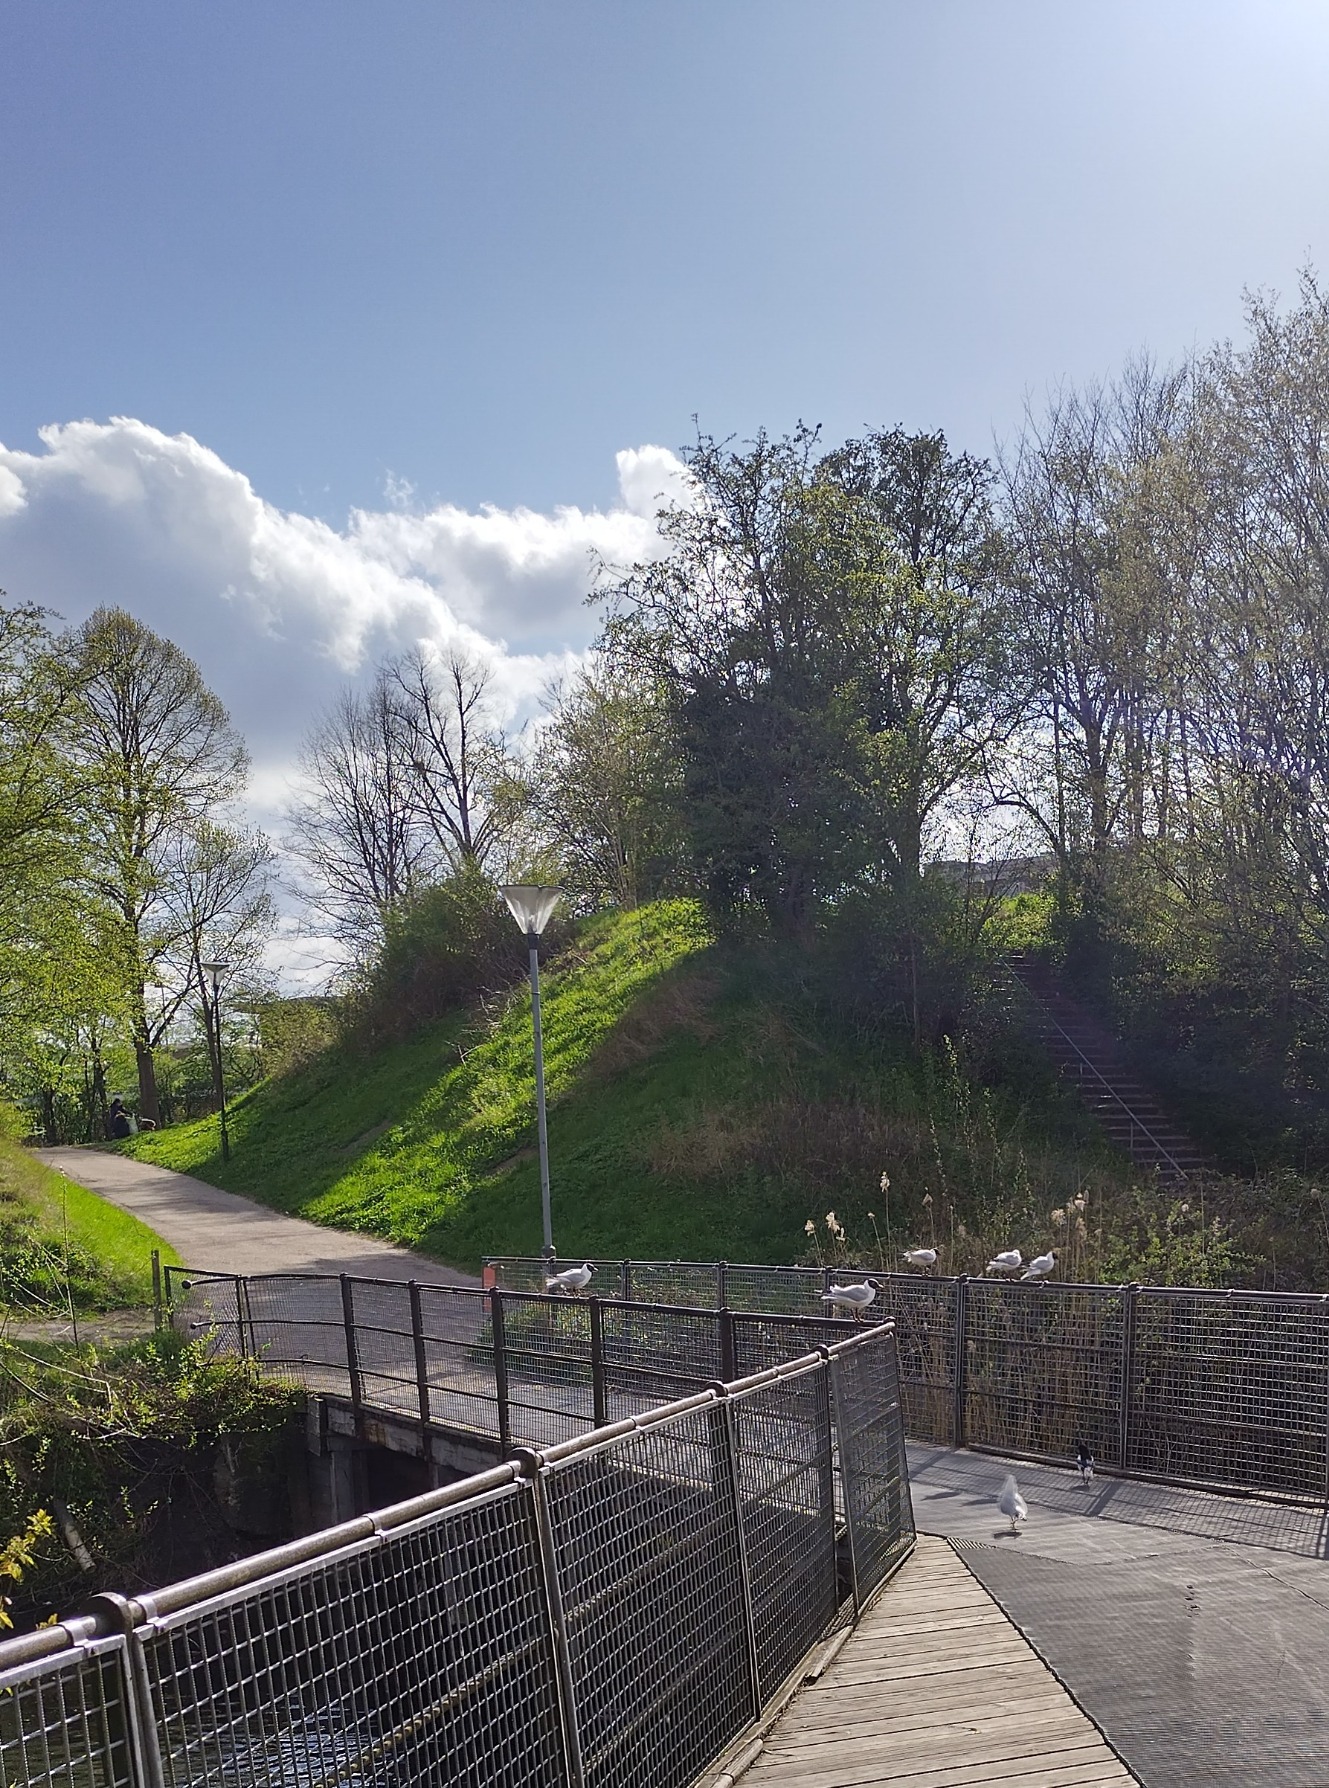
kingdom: Animalia
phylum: Chordata
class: Aves
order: Charadriiformes
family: Laridae
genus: Chroicocephalus
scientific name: Chroicocephalus ridibundus
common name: Hættemåge
